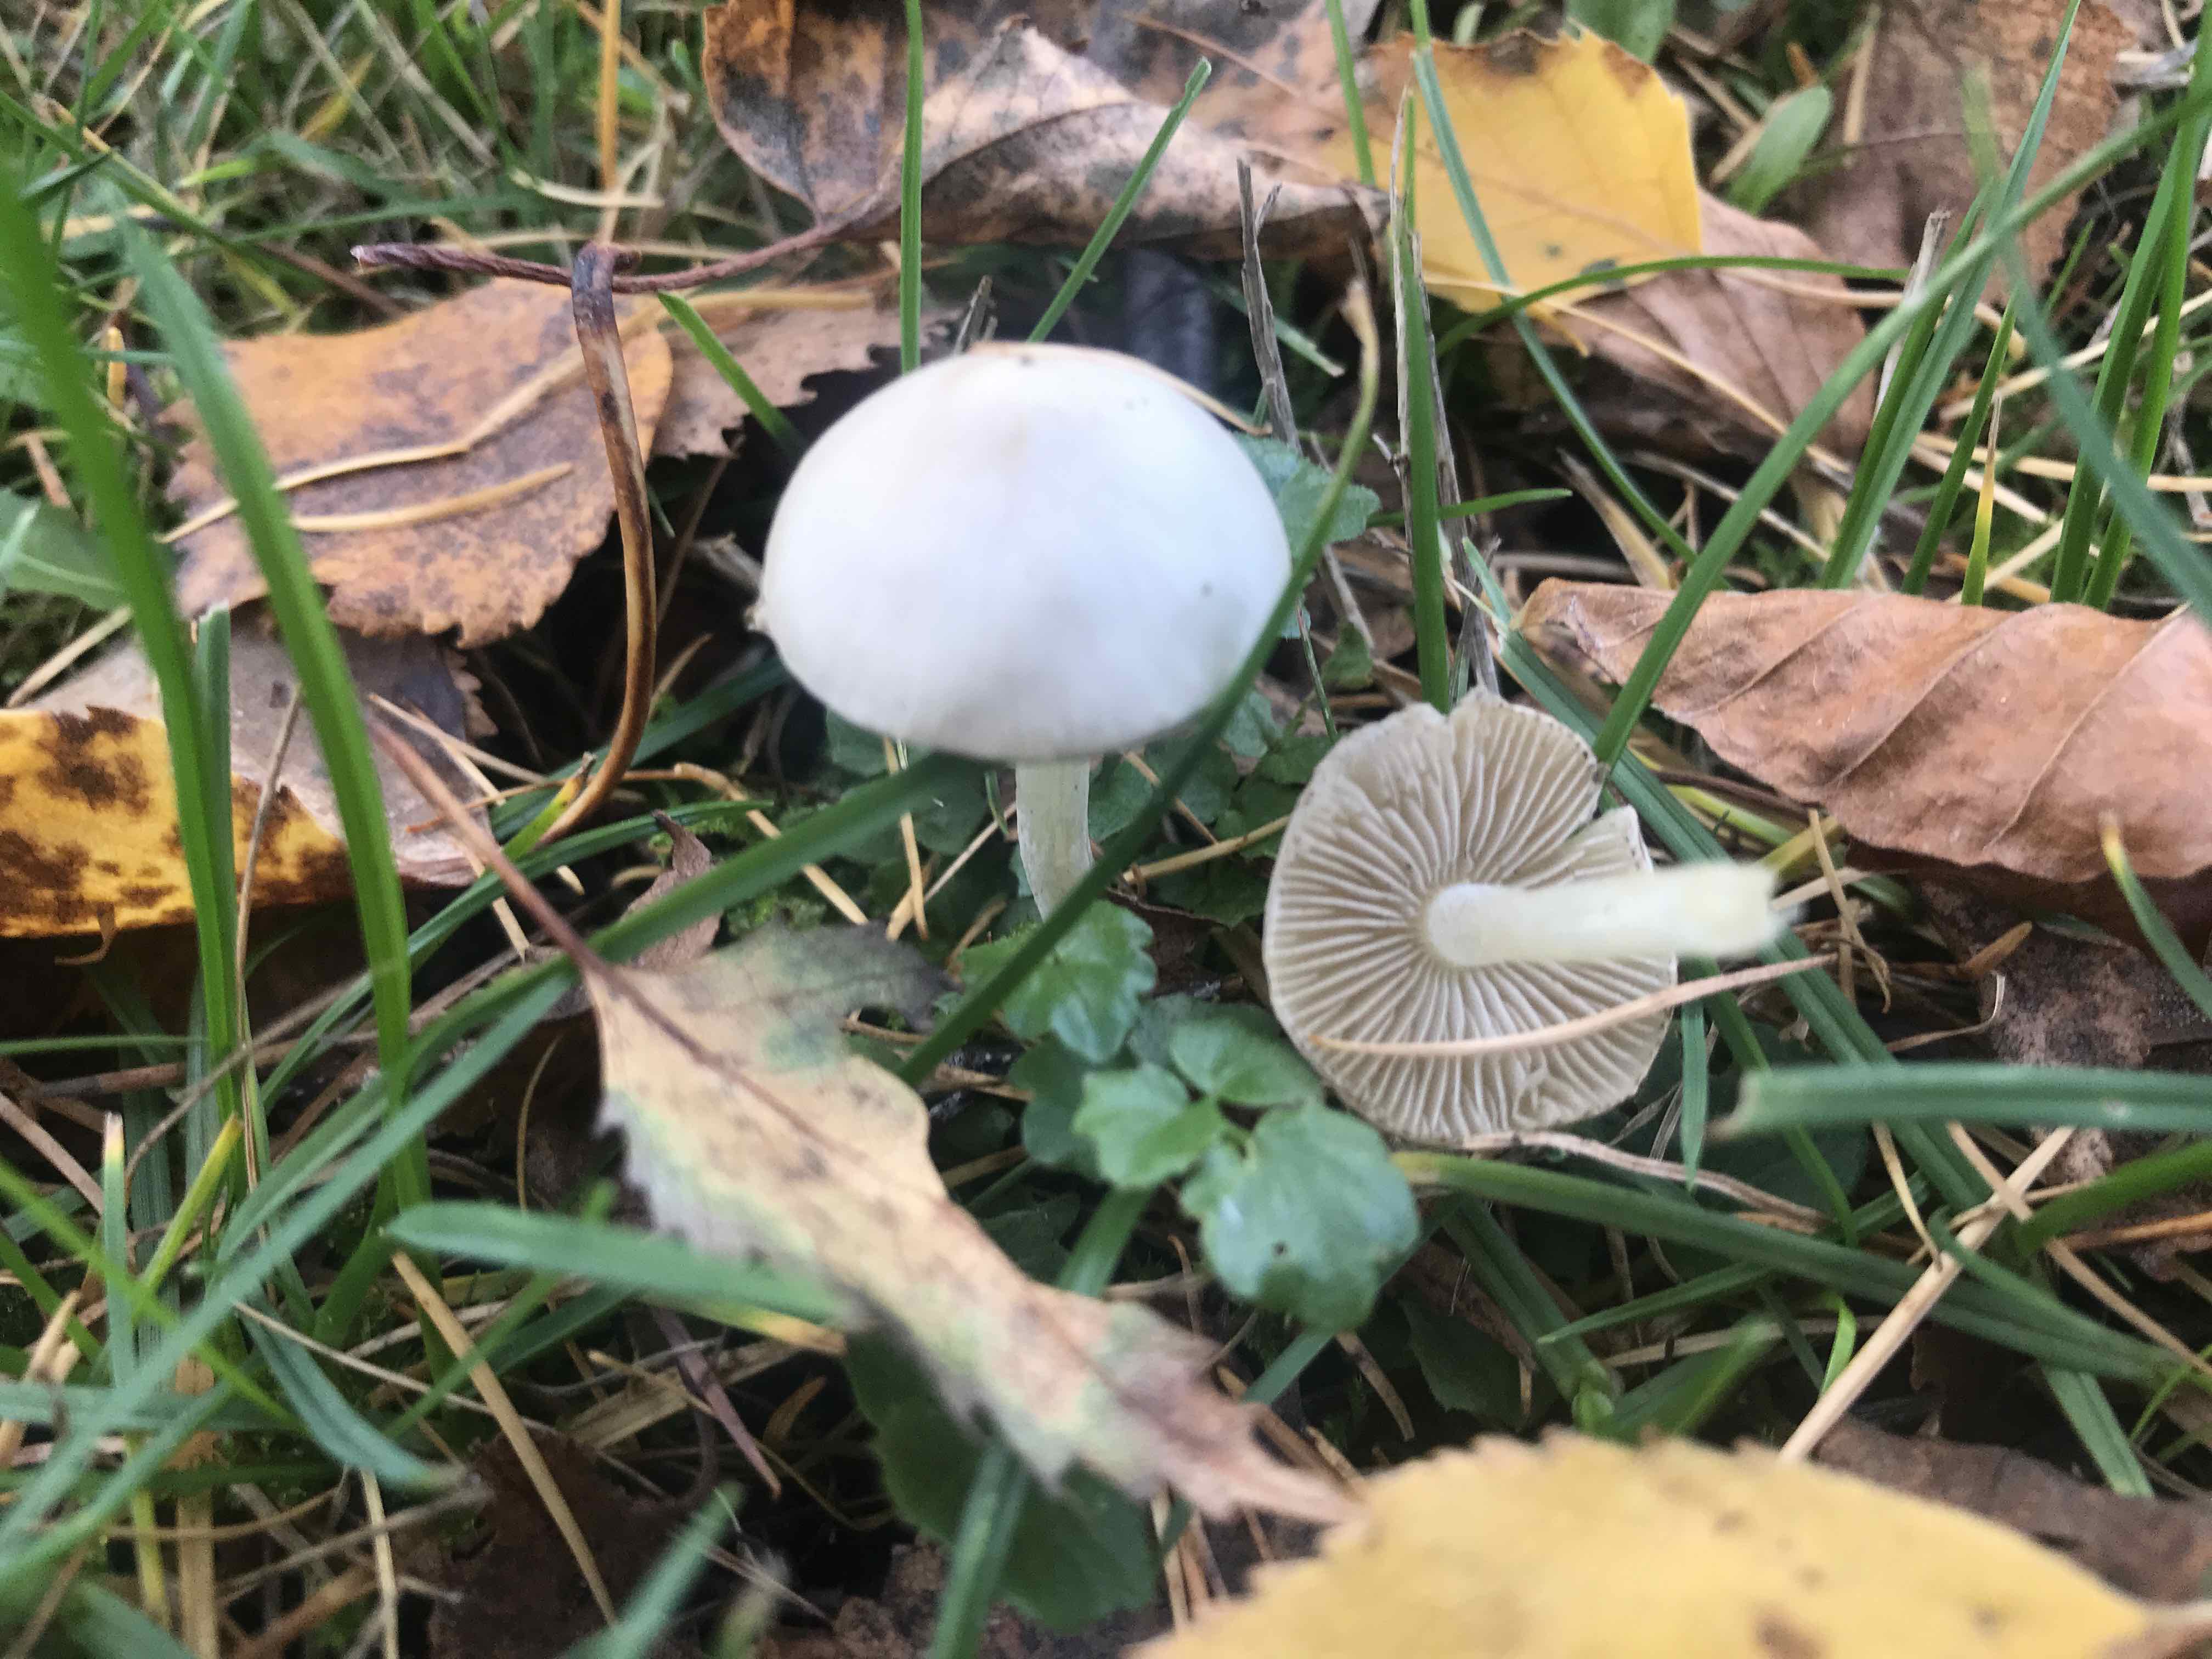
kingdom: Fungi
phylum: Basidiomycota
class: Agaricomycetes
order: Agaricales
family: Inocybaceae
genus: Inocybe
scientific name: Inocybe
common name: almindelig trævlhat
